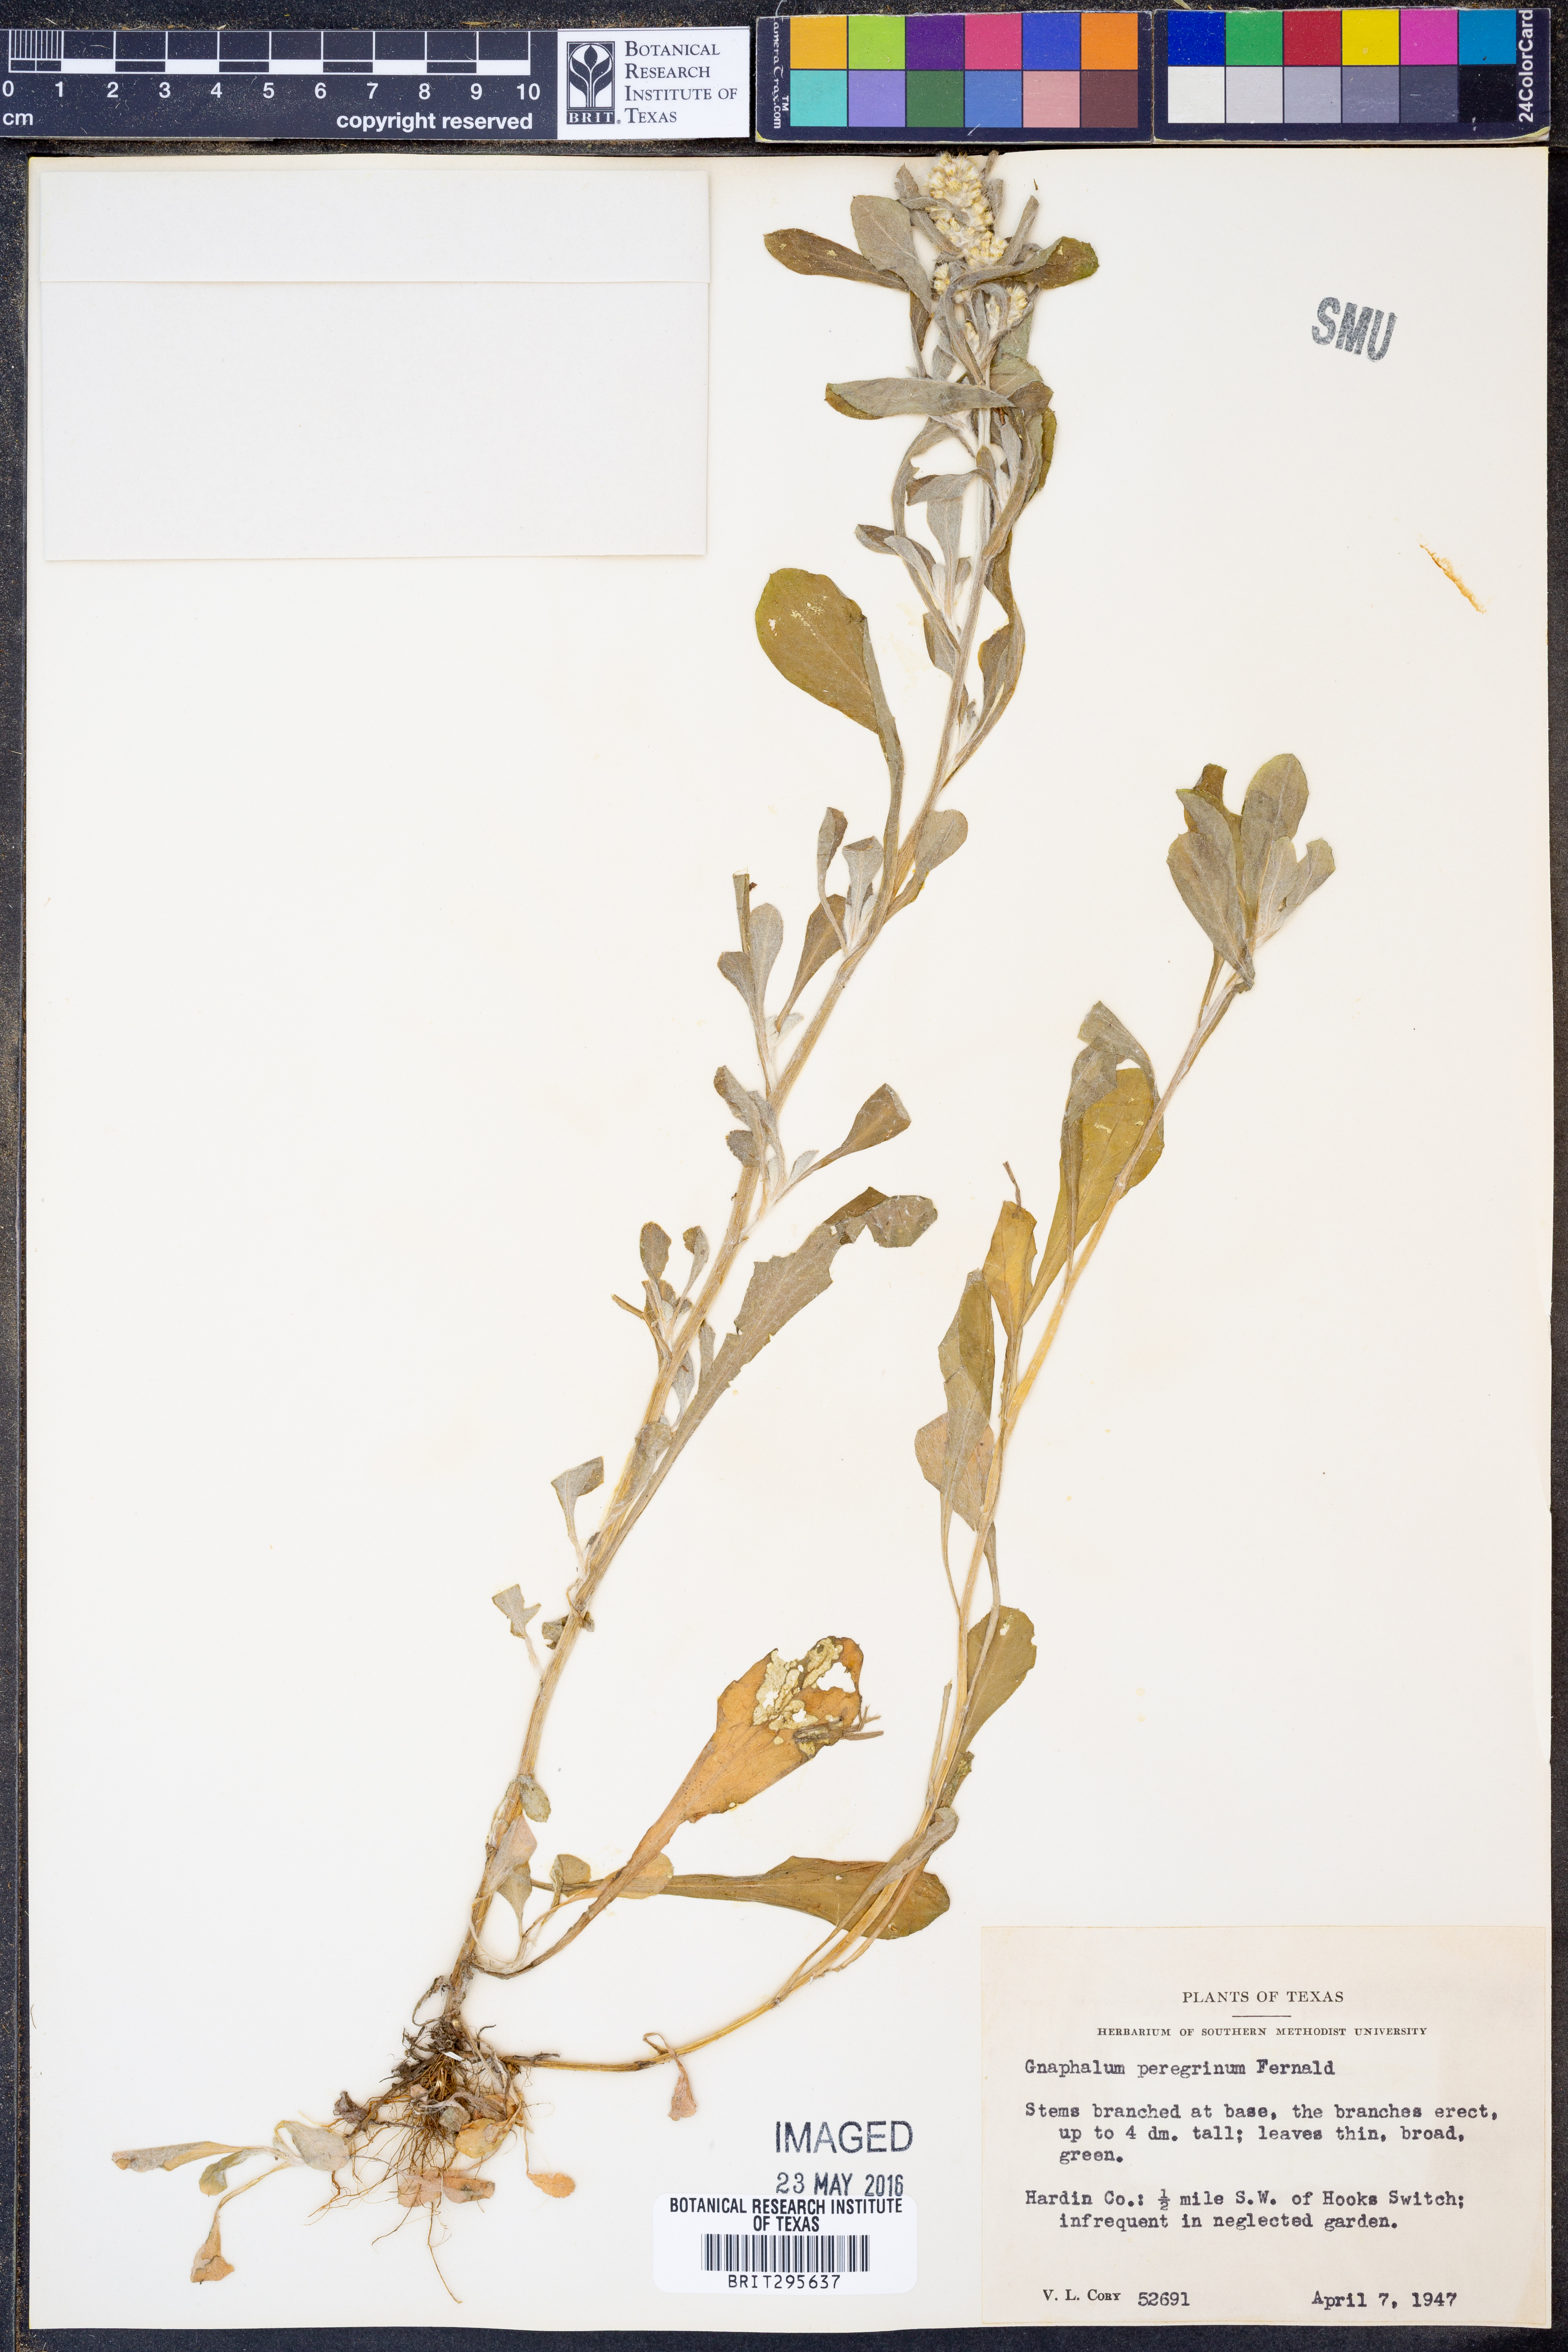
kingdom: Plantae
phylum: Tracheophyta
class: Magnoliopsida
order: Asterales
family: Asteraceae
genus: Gamochaeta
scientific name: Gamochaeta pensylvanica
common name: Pennsylvania everlasting
